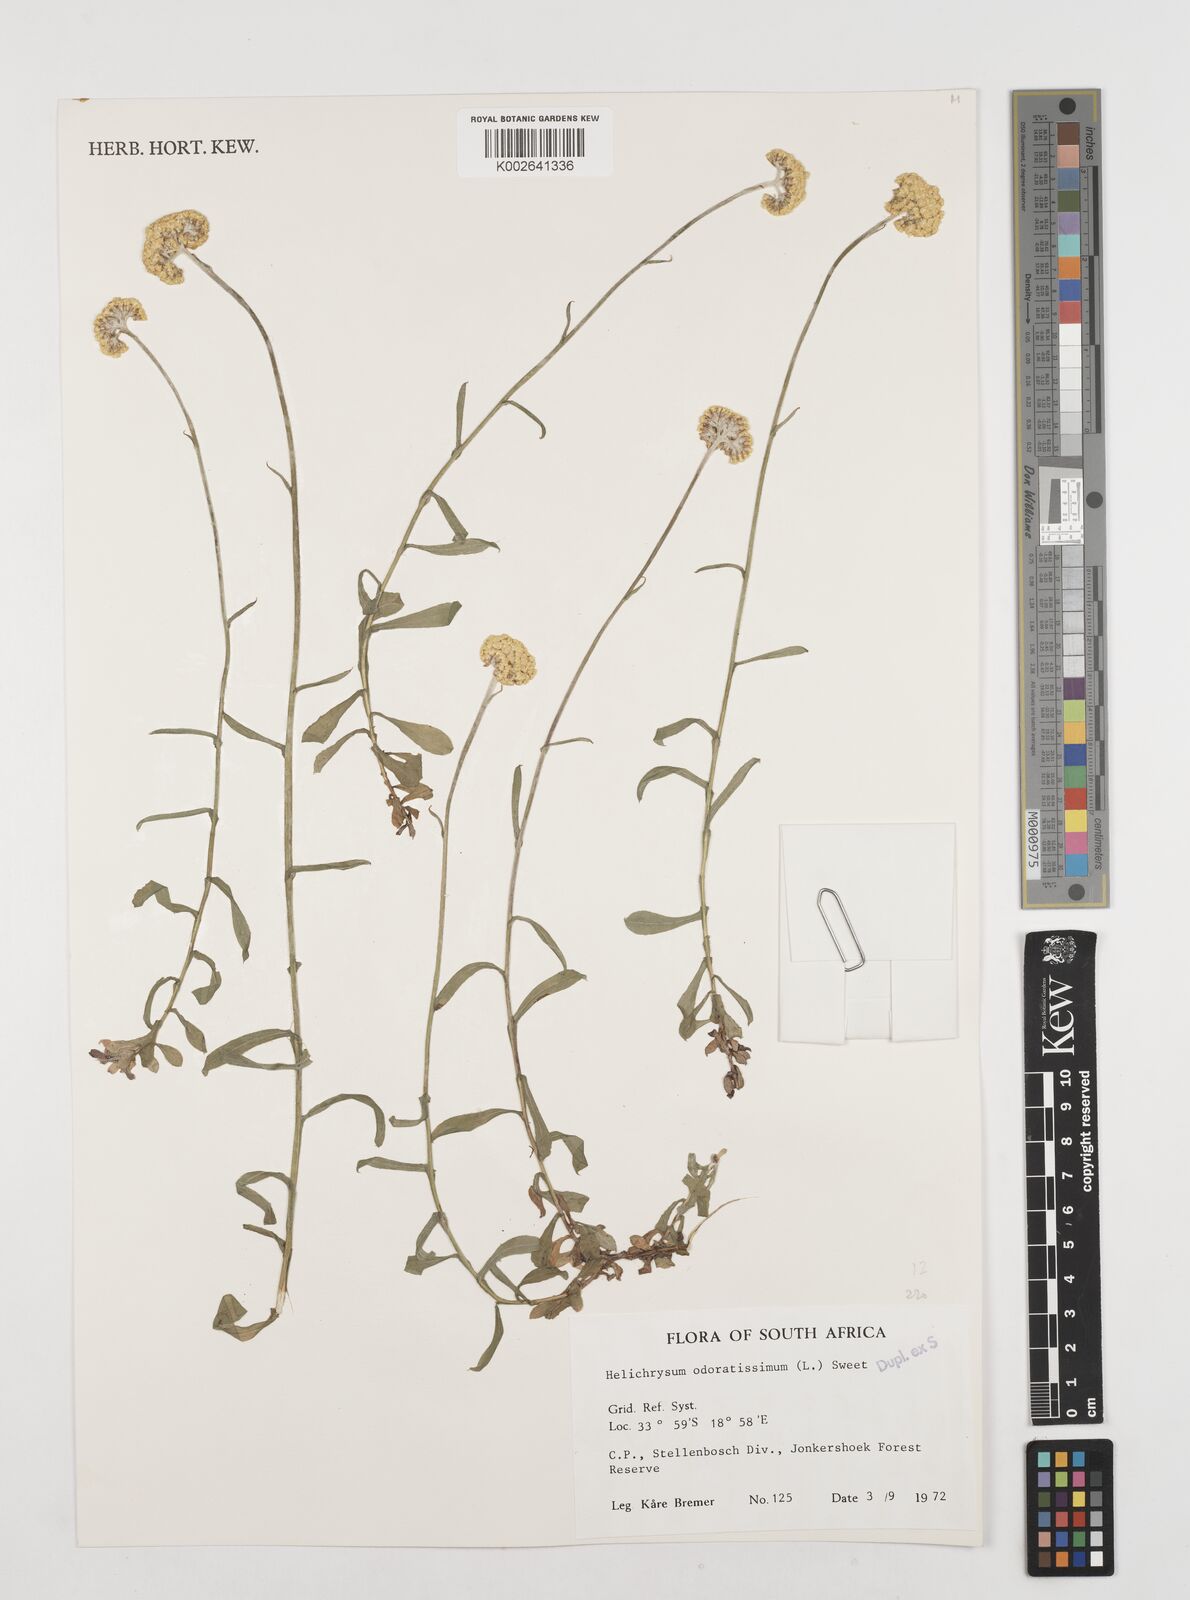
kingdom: Plantae
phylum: Tracheophyta
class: Magnoliopsida
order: Asterales
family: Asteraceae
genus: Helichrysum
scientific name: Helichrysum odoratissimum
